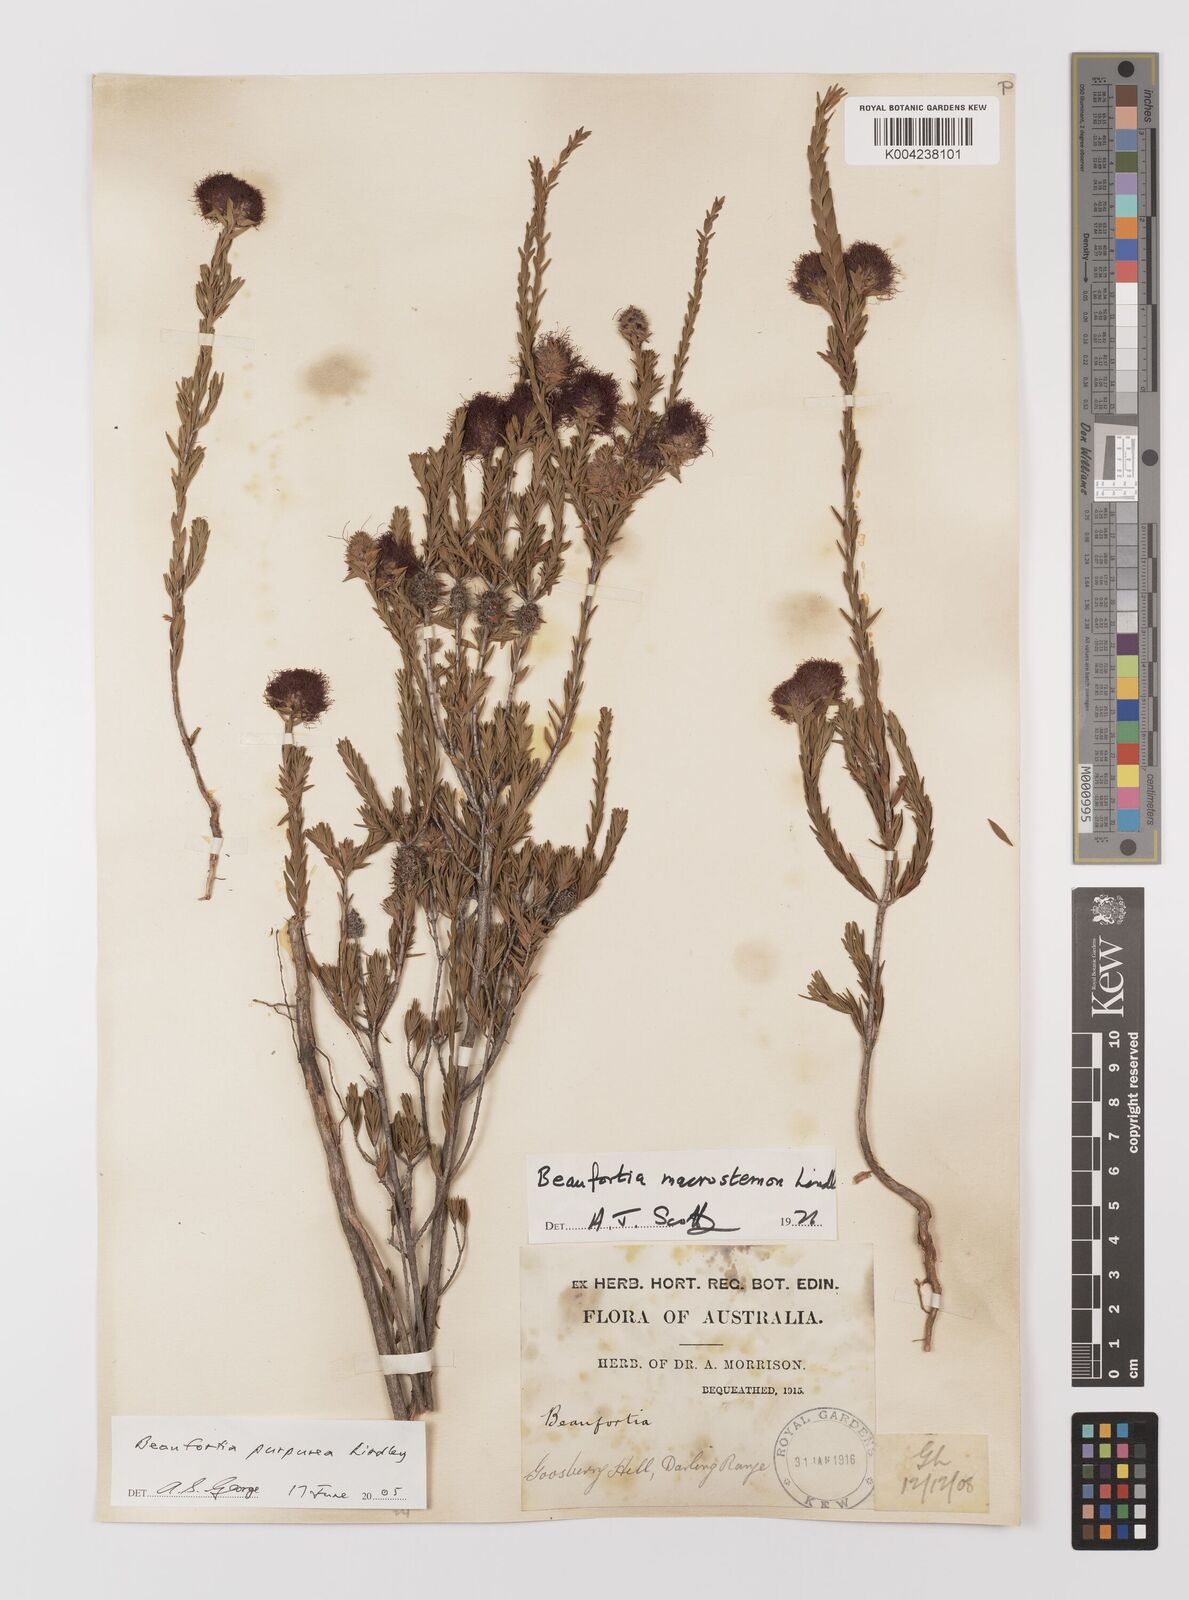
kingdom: Plantae
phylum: Tracheophyta
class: Magnoliopsida
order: Myrtales
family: Myrtaceae
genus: Melaleuca
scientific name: Melaleuca purpurea
